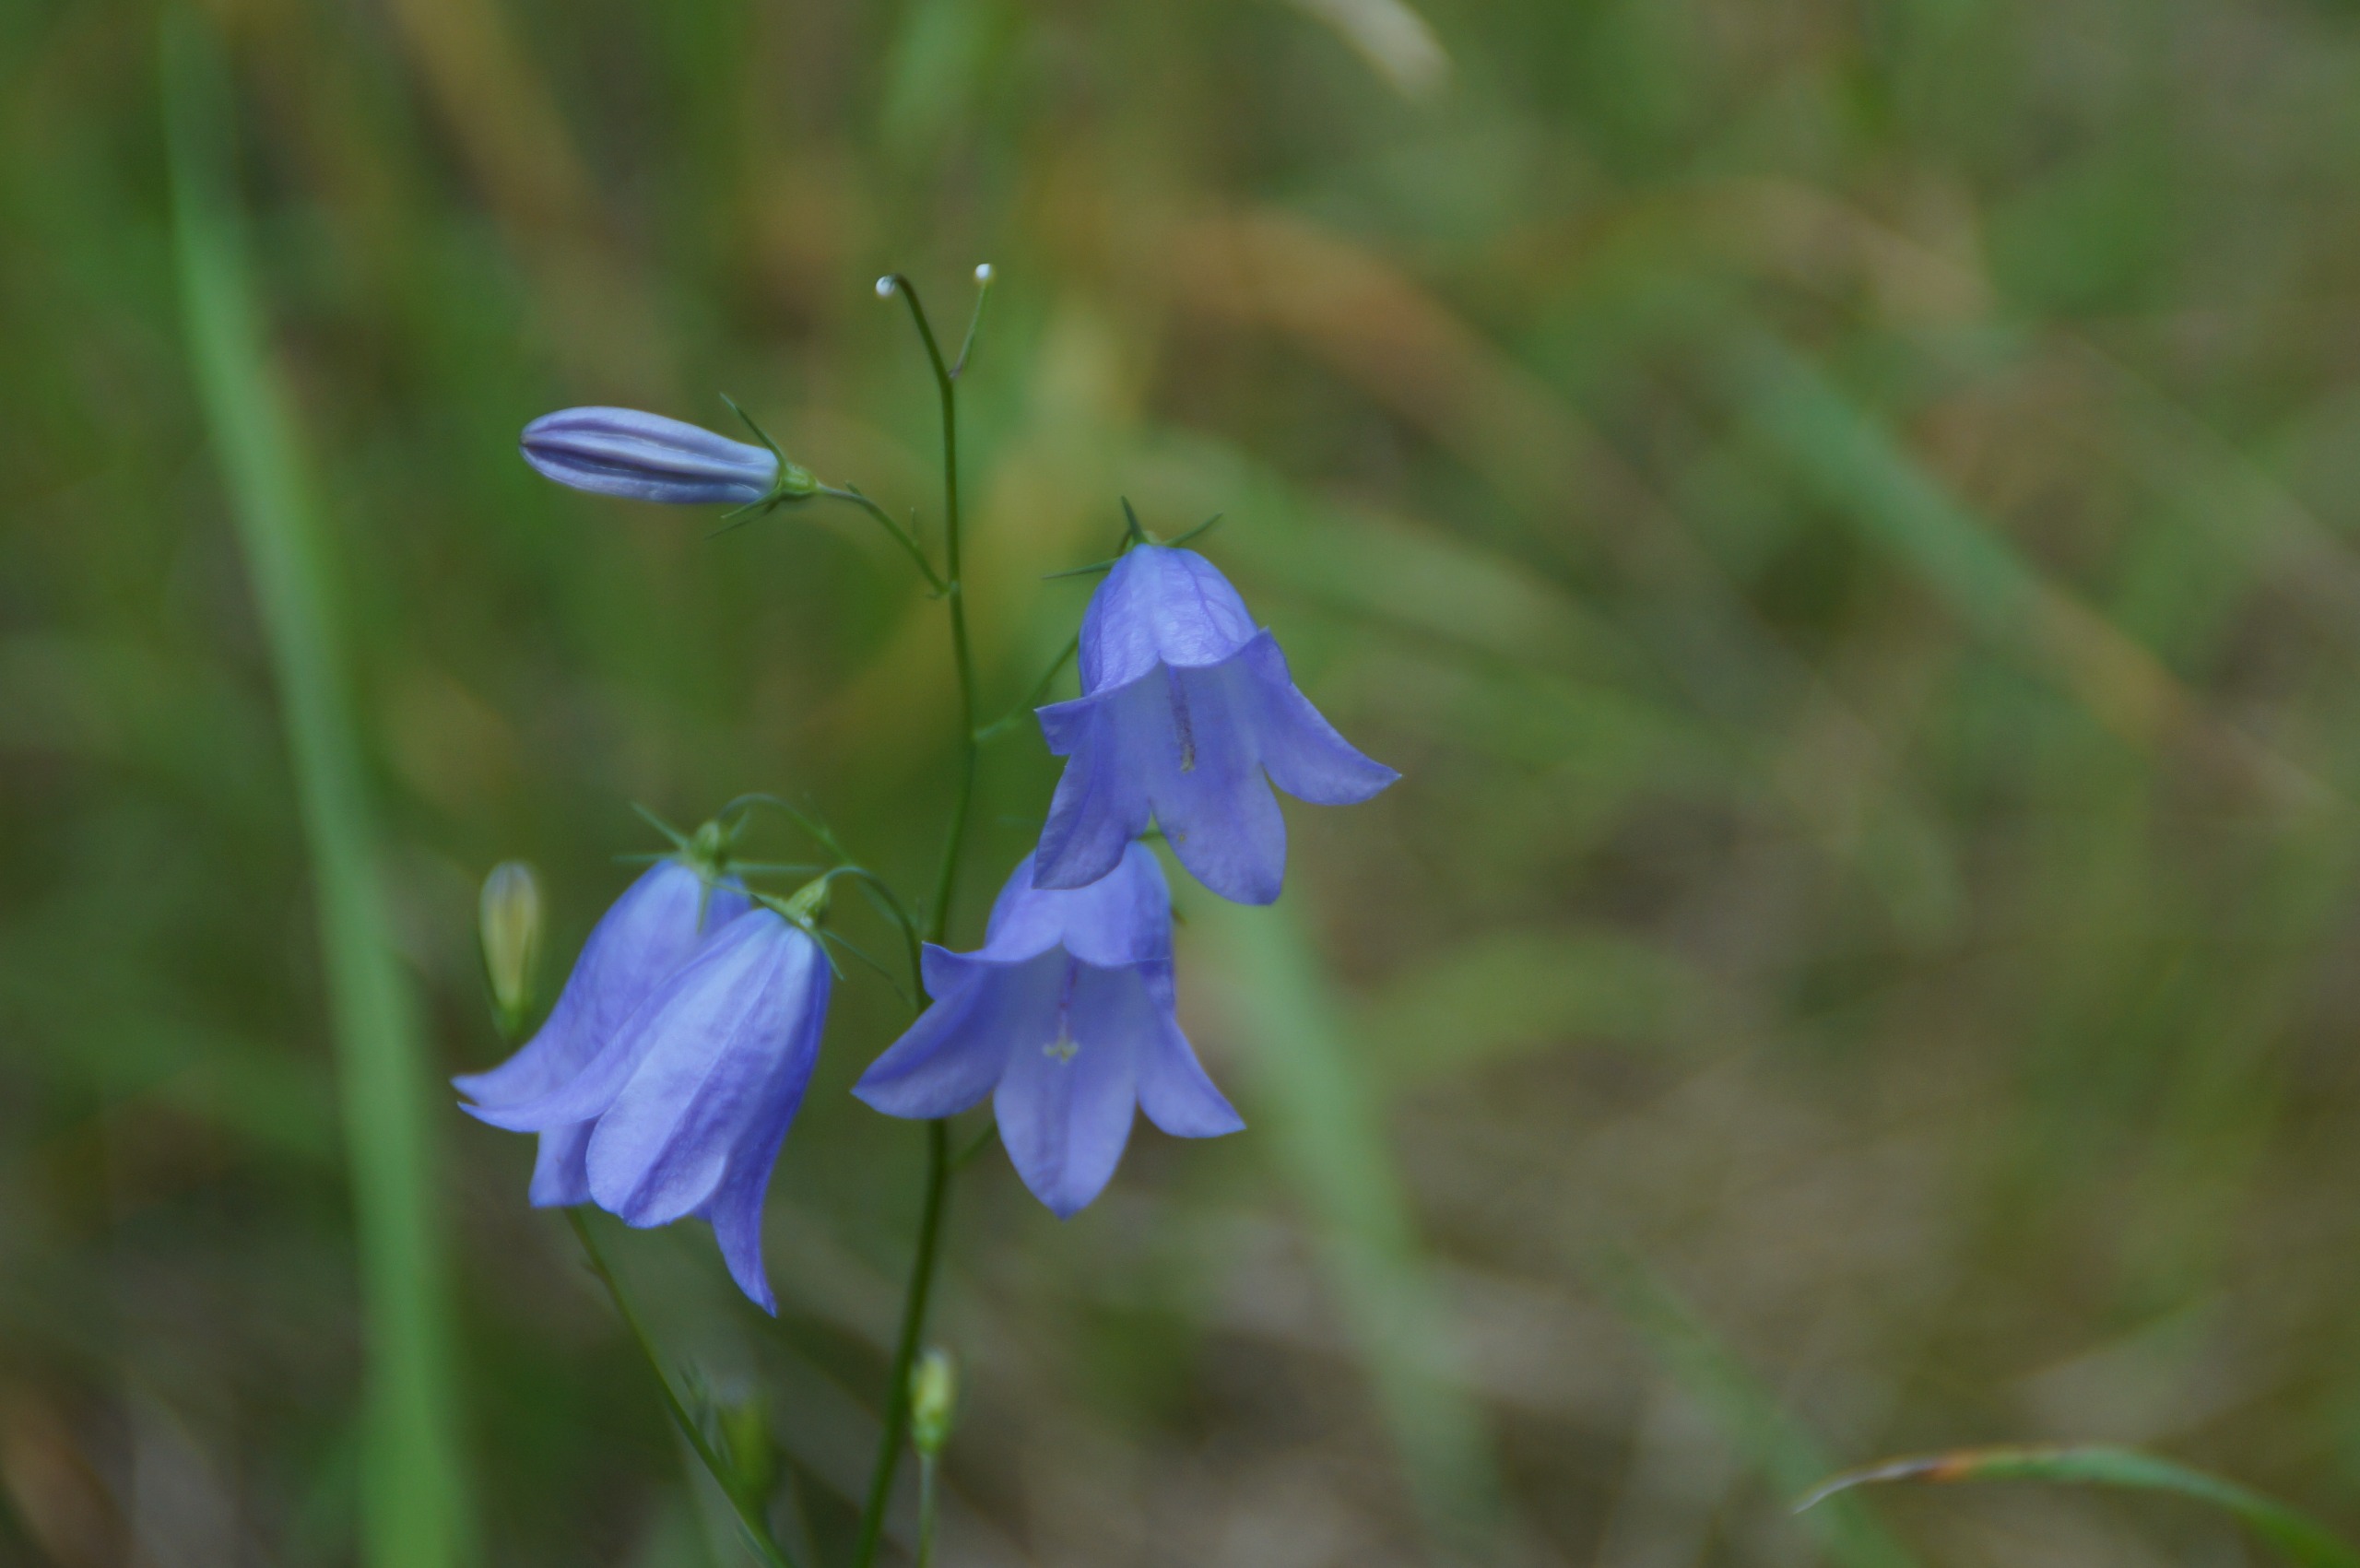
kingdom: Plantae
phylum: Tracheophyta
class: Magnoliopsida
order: Asterales
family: Campanulaceae
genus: Campanula
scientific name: Campanula rotundifolia
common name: Liden klokke
